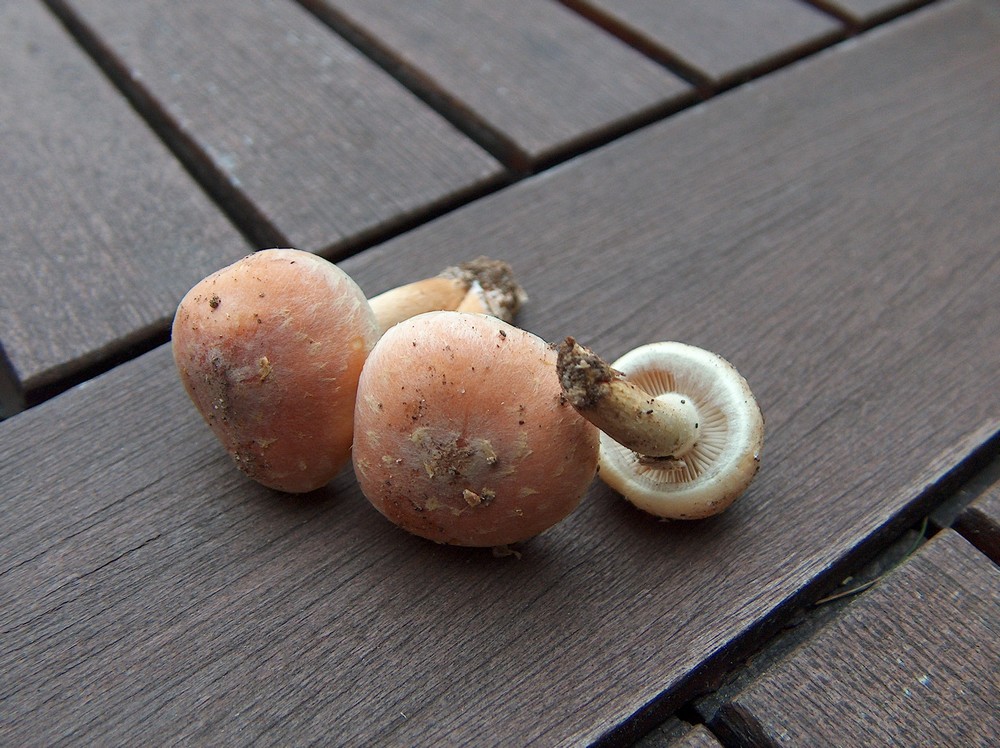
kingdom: Fungi
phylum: Basidiomycota
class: Agaricomycetes
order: Agaricales
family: Strophariaceae
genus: Hypholoma
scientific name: Hypholoma lateritium
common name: teglrød svovlhat
